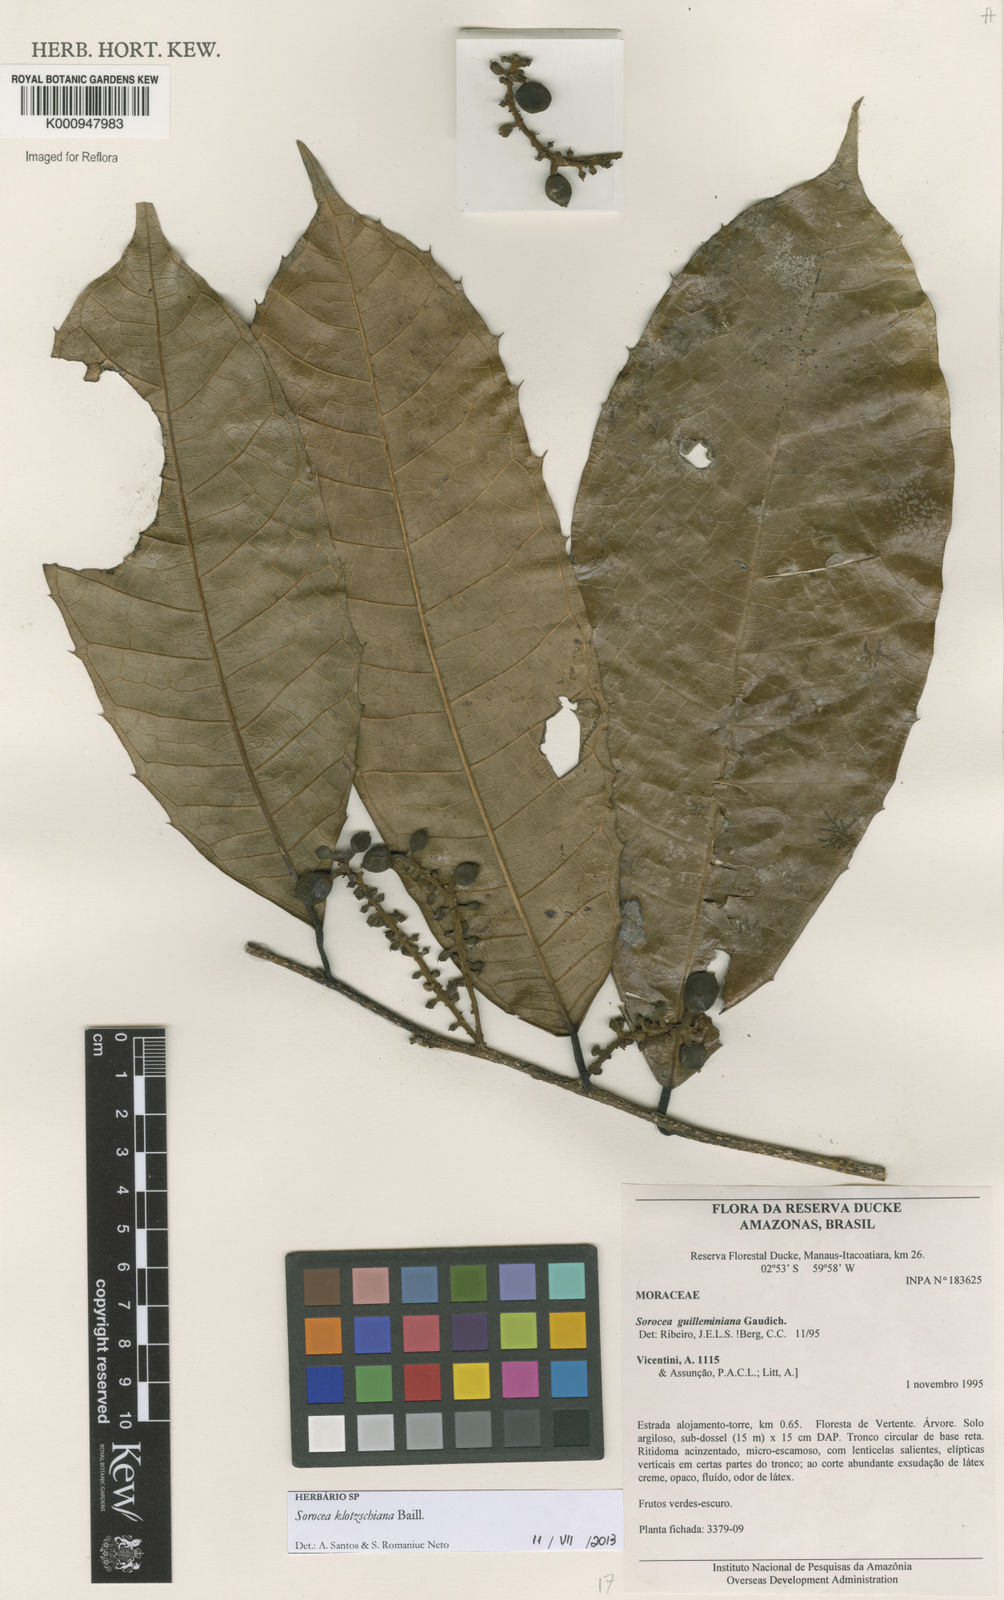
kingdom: Plantae
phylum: Tracheophyta
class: Magnoliopsida
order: Rosales
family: Moraceae
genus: Sorocea
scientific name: Sorocea guilleminiana
